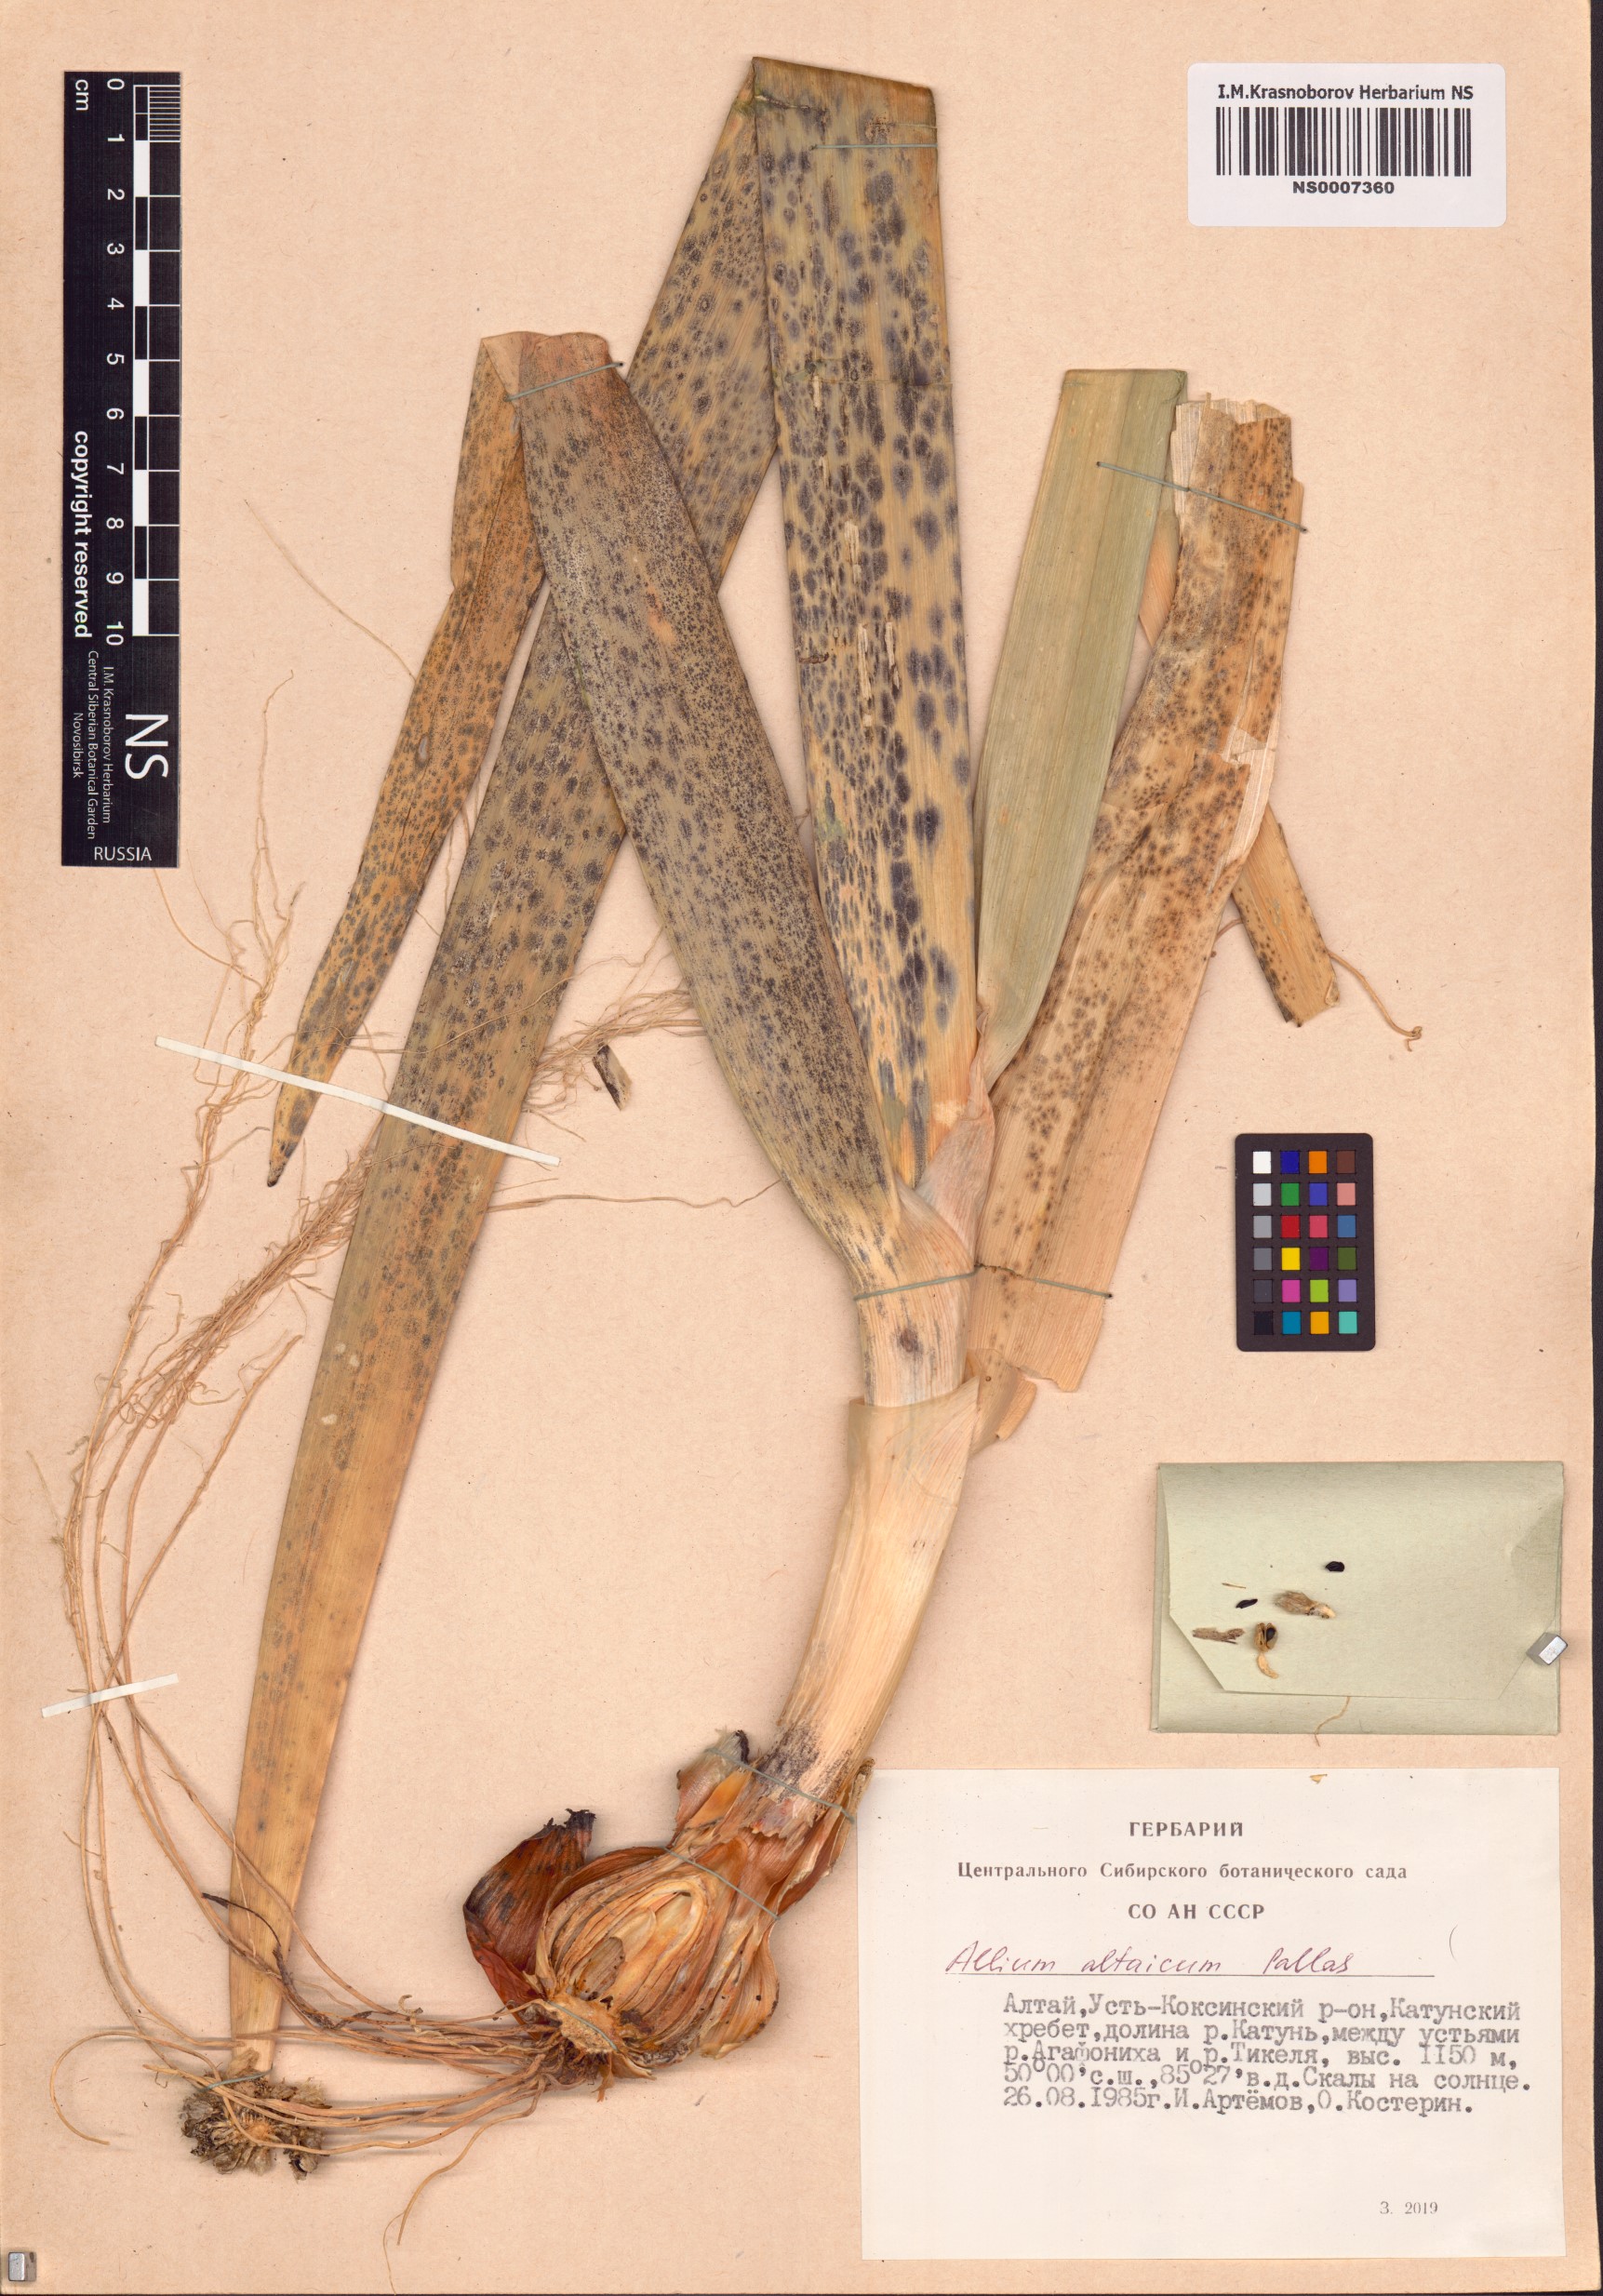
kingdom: Plantae
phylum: Tracheophyta
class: Liliopsida
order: Asparagales
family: Amaryllidaceae
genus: Allium
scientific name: Allium altaicum
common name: Altai onion
